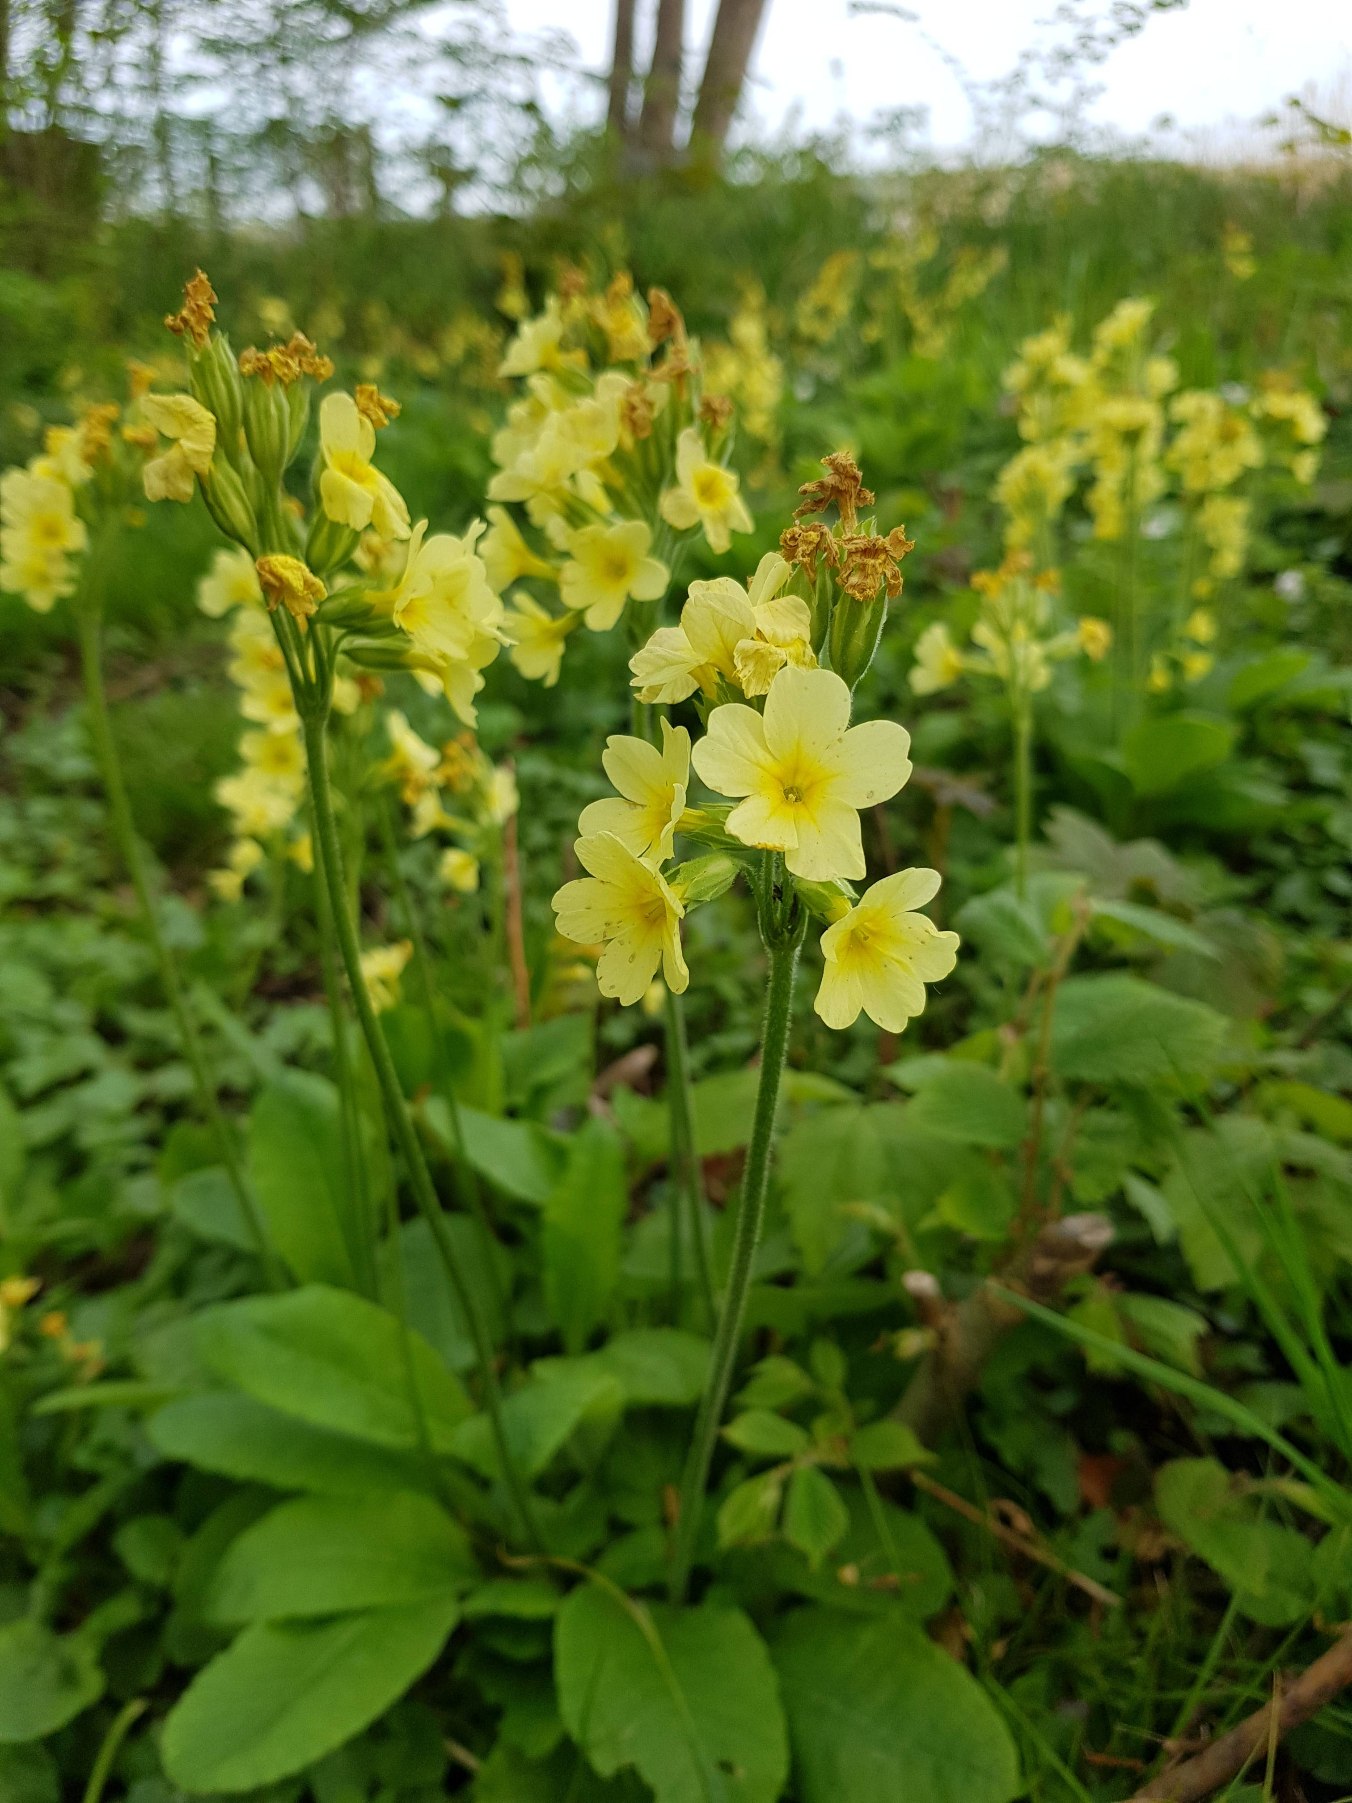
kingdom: Plantae
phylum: Tracheophyta
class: Magnoliopsida
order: Ericales
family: Primulaceae
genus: Primula
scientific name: Primula elatior
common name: Fladkravet kodriver
